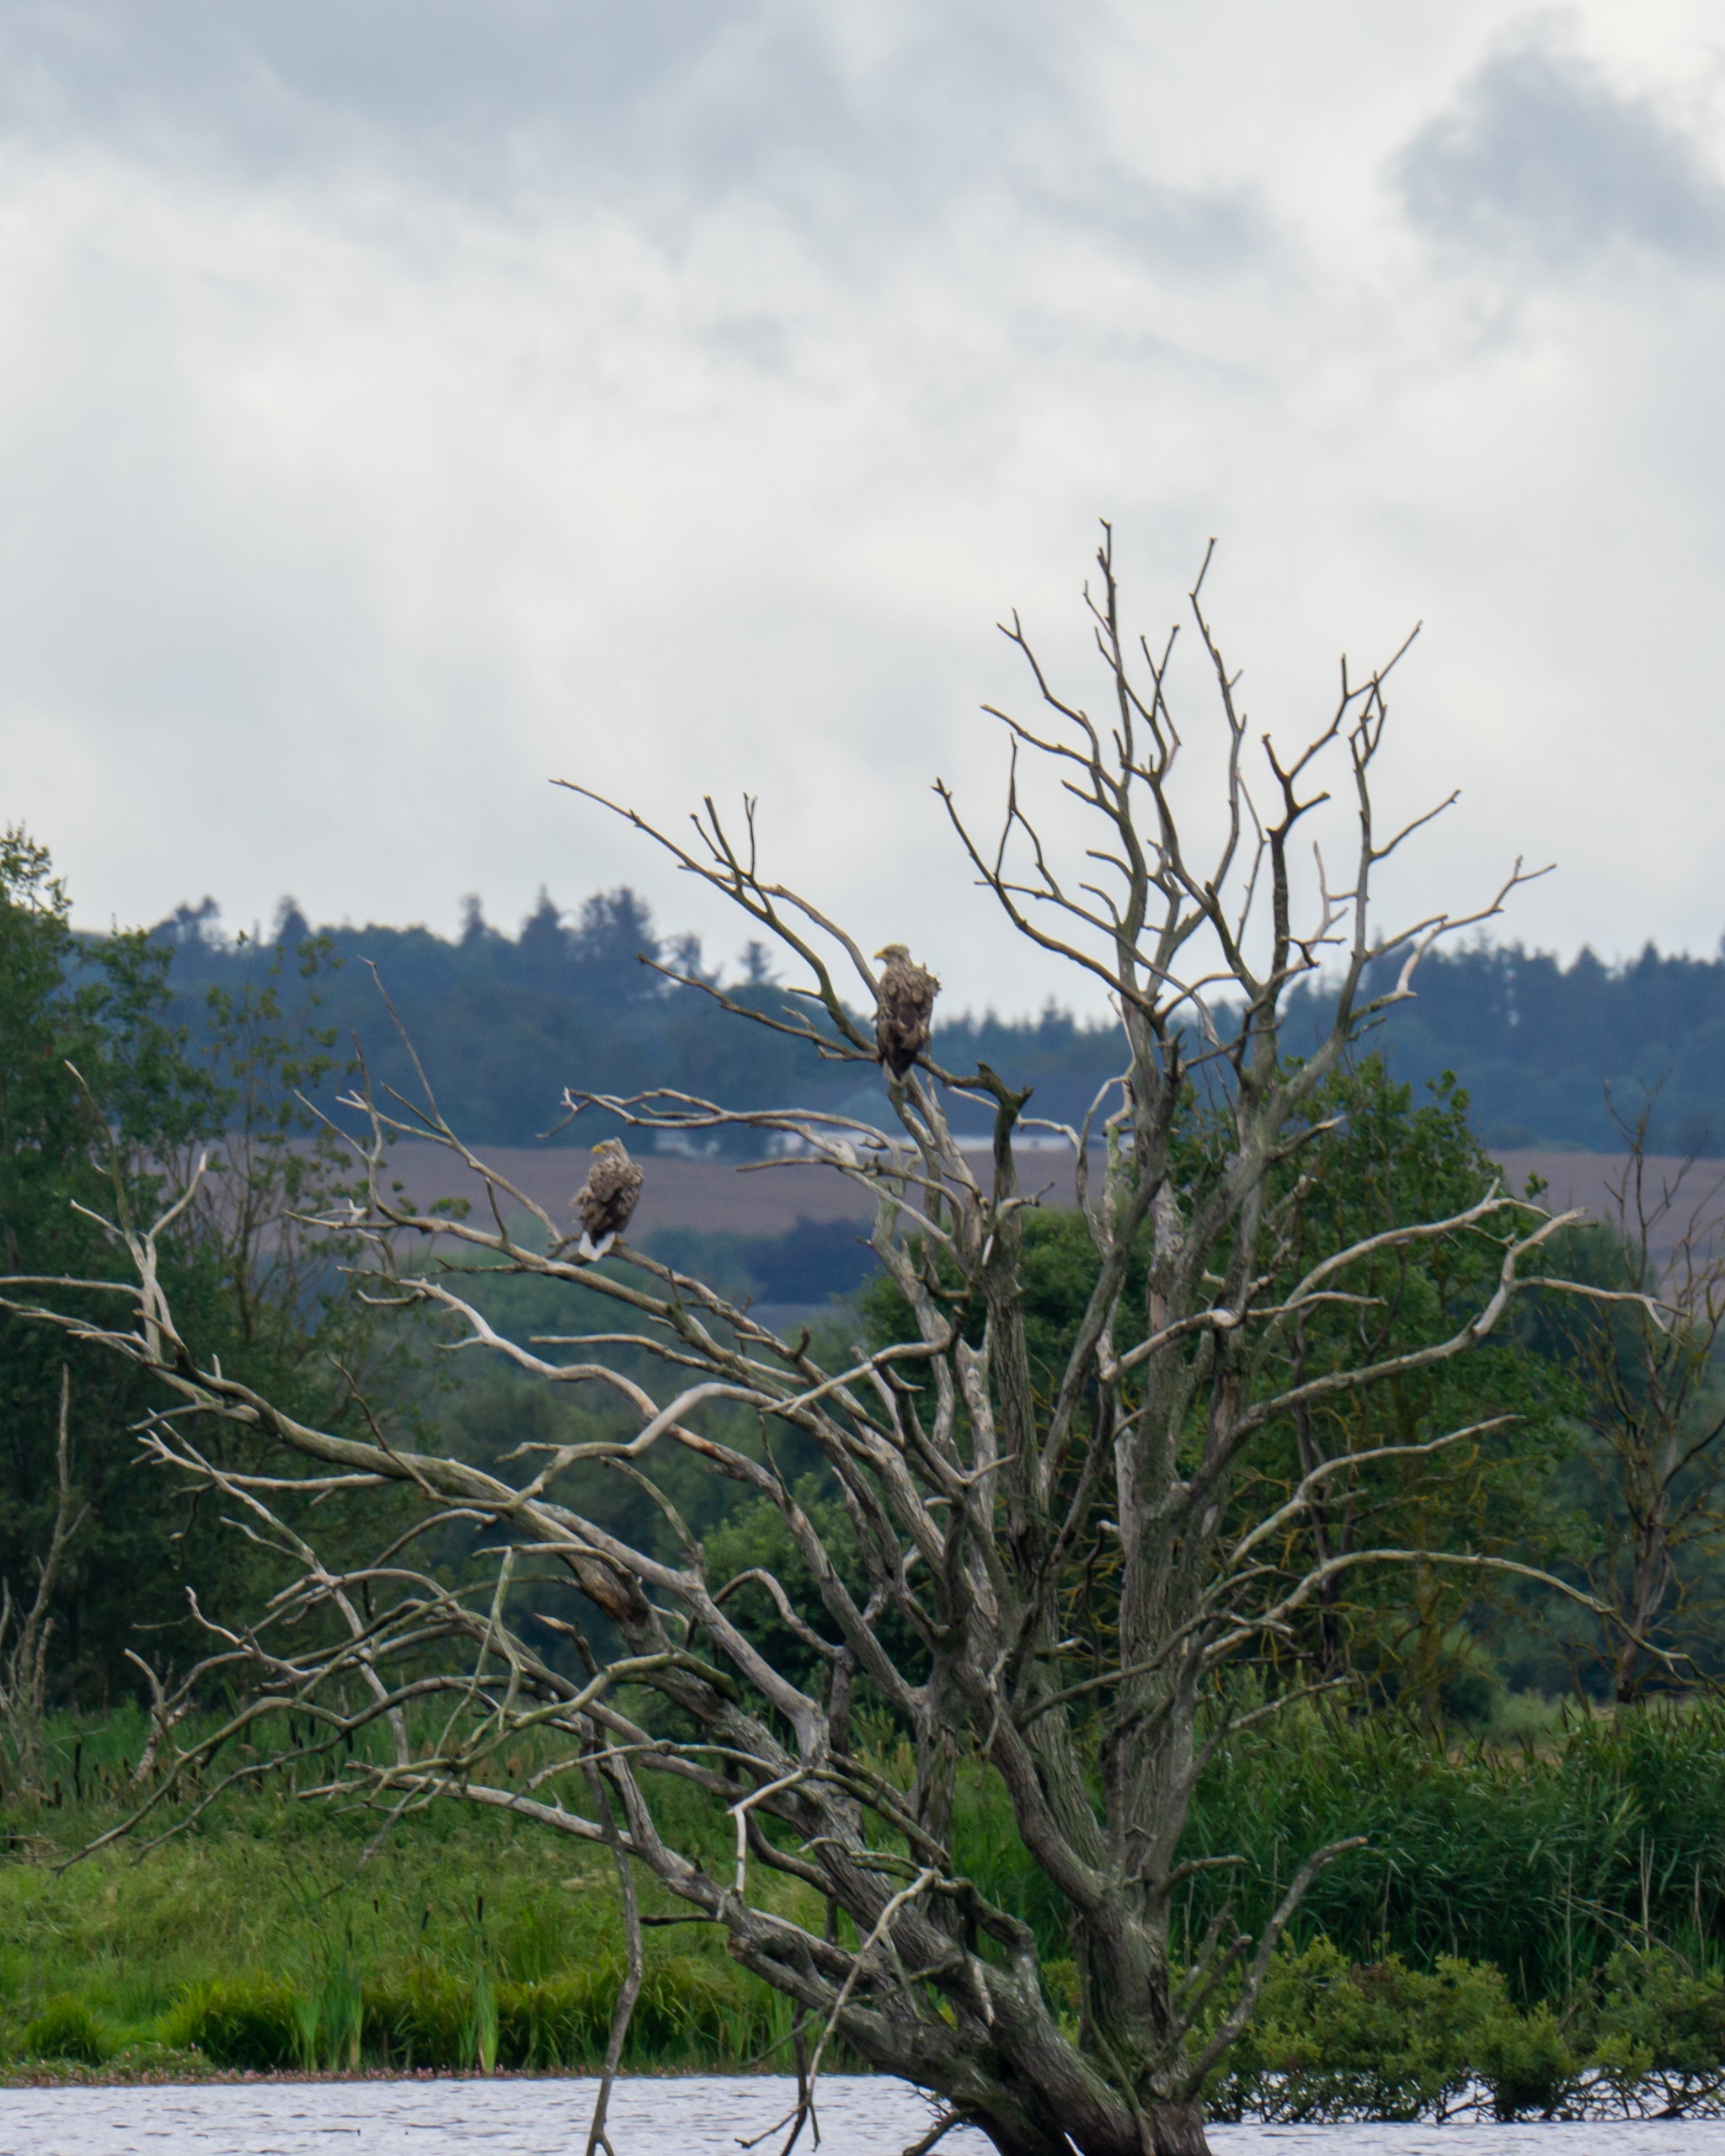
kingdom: Animalia
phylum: Chordata
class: Aves
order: Accipitriformes
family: Accipitridae
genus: Haliaeetus
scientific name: Haliaeetus albicilla
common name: Havørn
